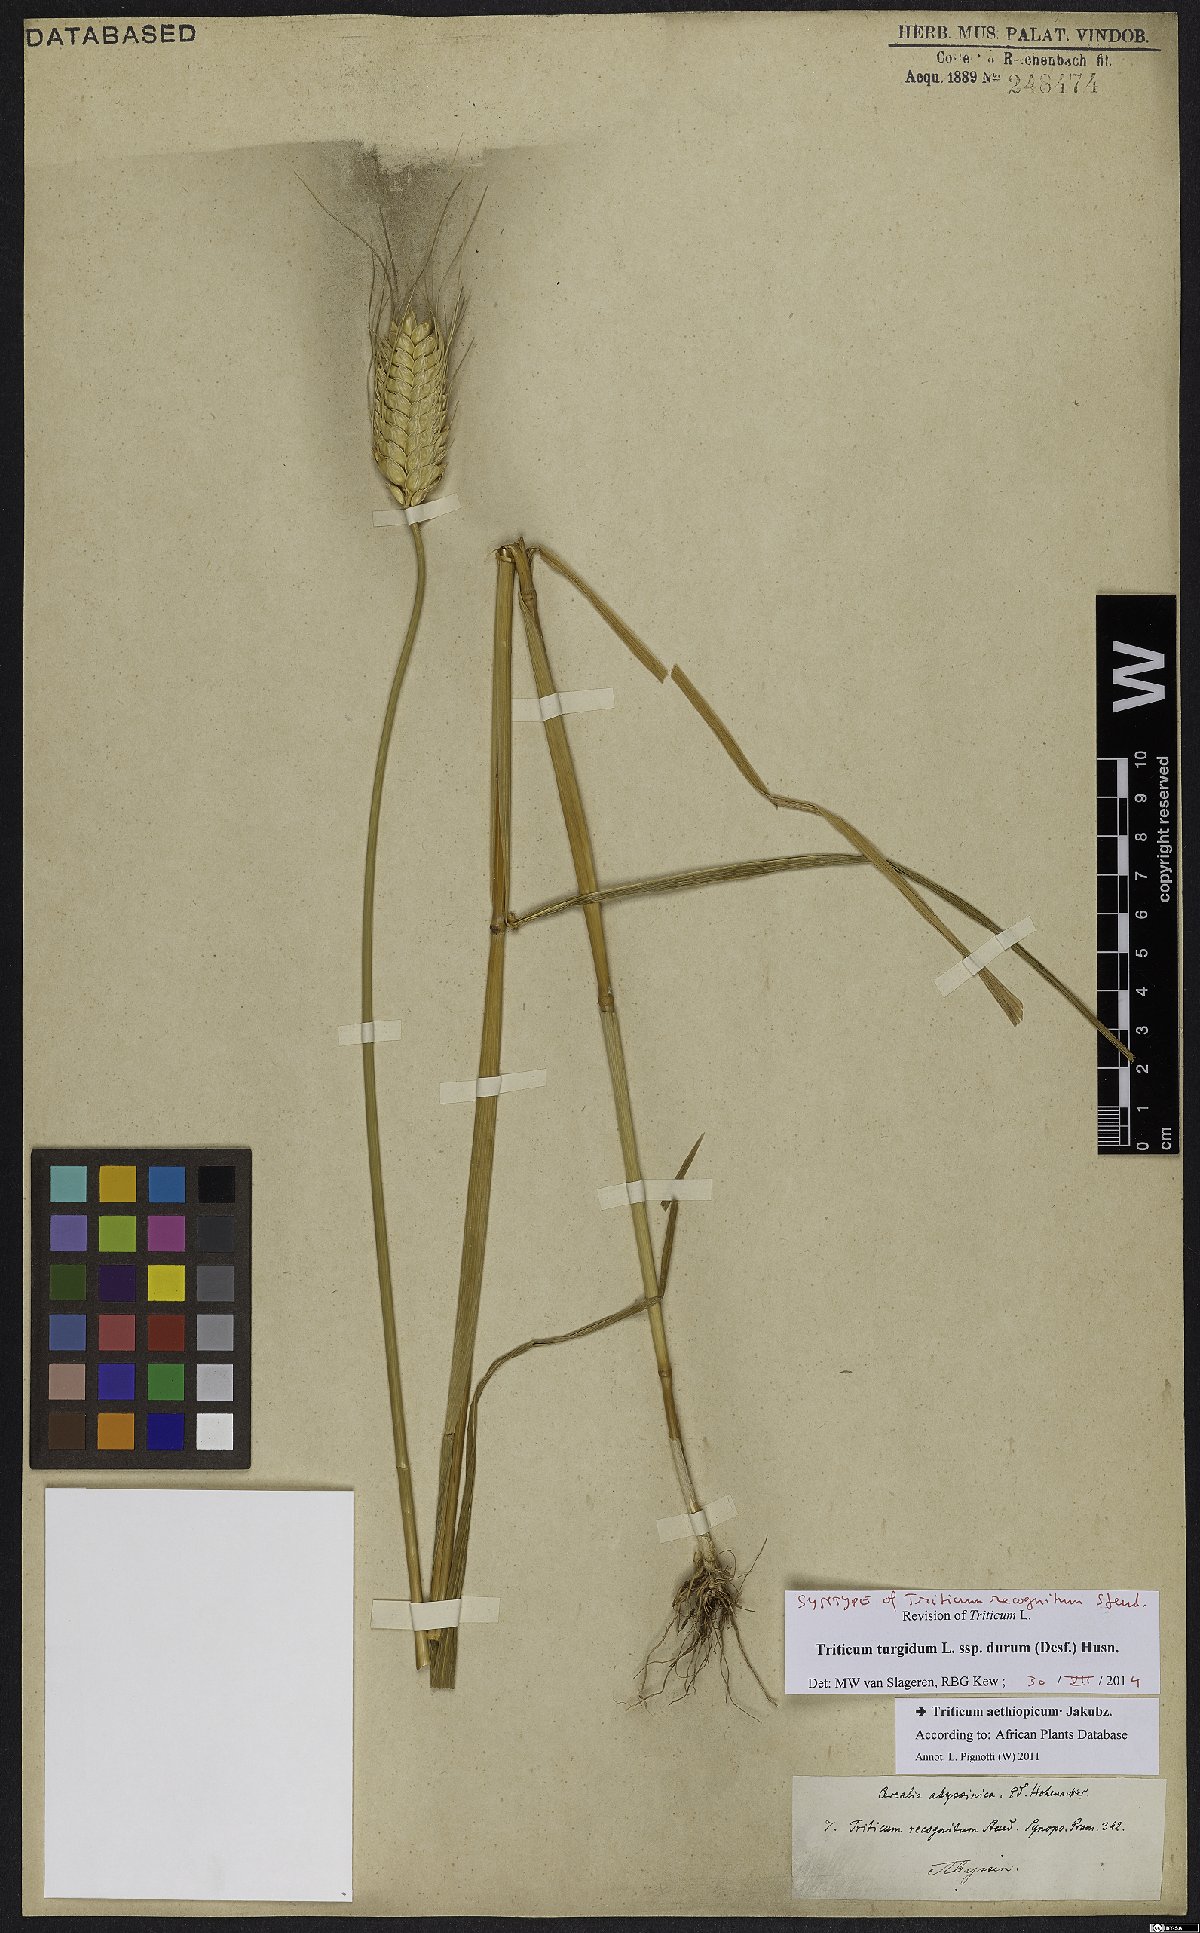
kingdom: Plantae
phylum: Tracheophyta
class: Liliopsida
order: Poales
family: Poaceae
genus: Triticum
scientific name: Triticum turgidum
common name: Rivet wheat
